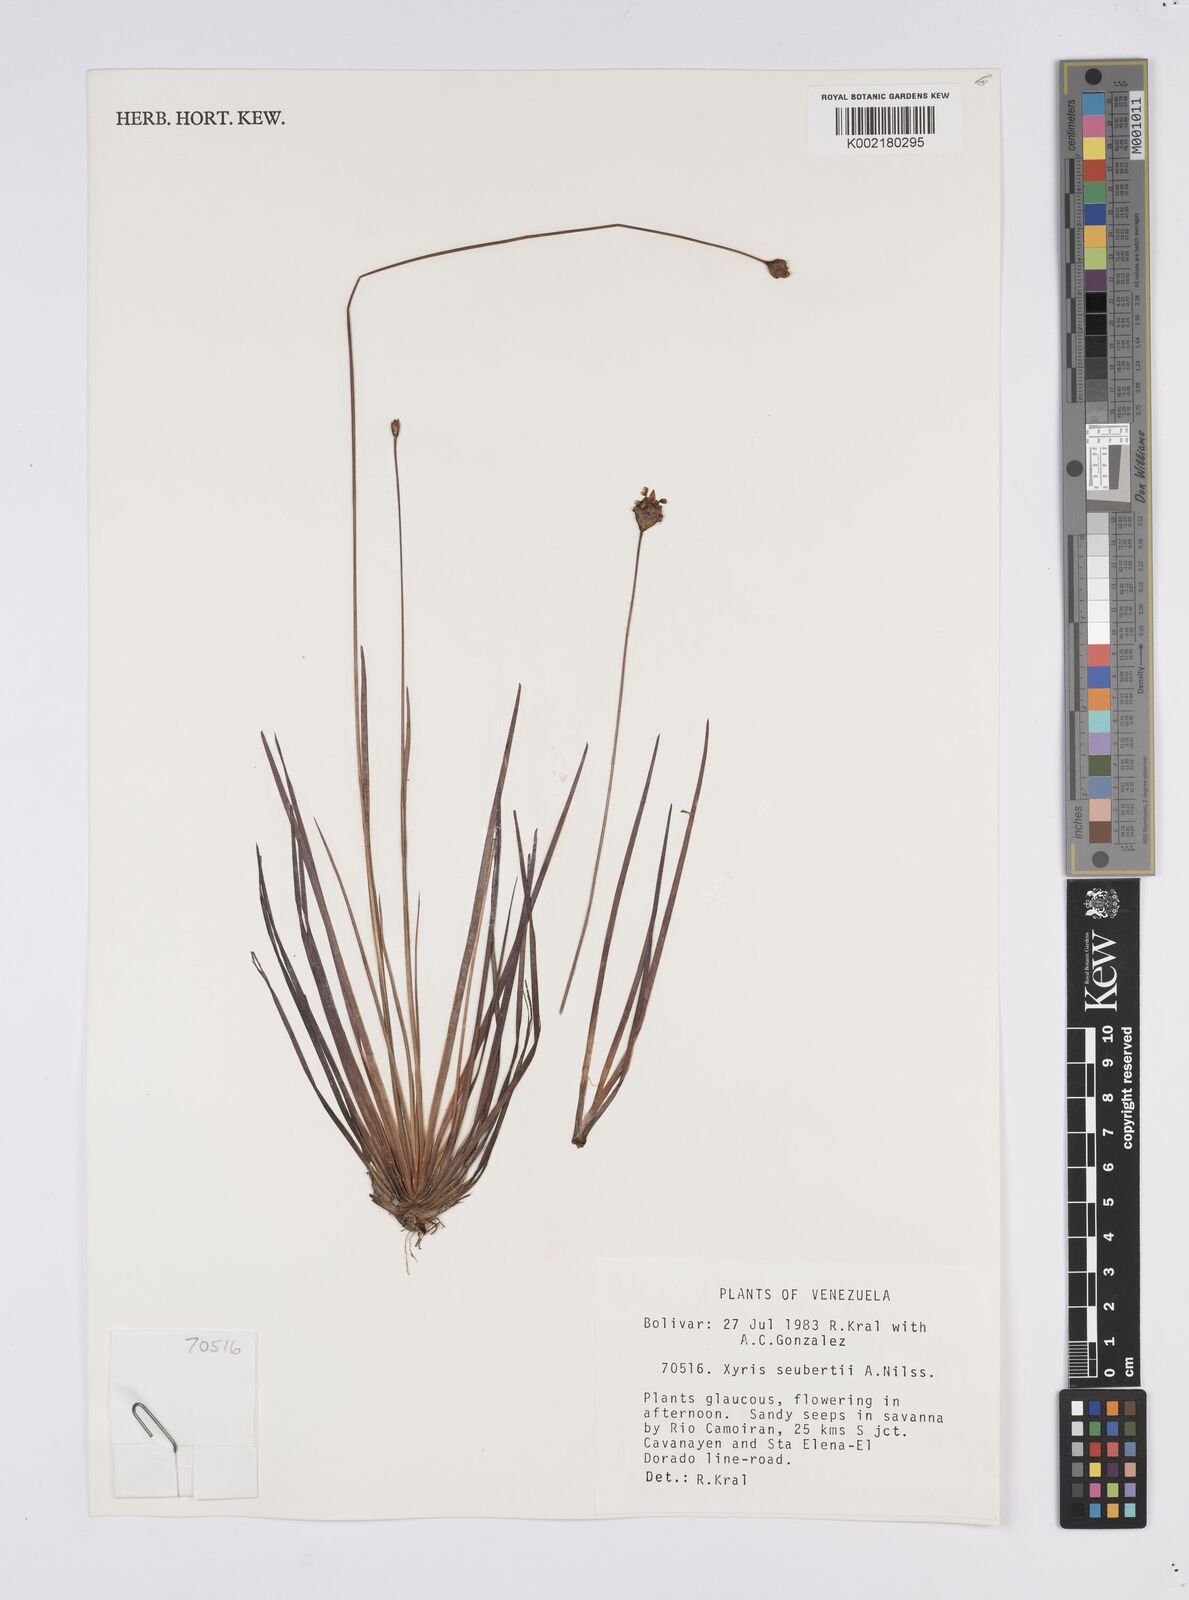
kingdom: Plantae
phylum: Tracheophyta
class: Liliopsida
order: Poales
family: Xyridaceae
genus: Xyris
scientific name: Xyris seubertii
